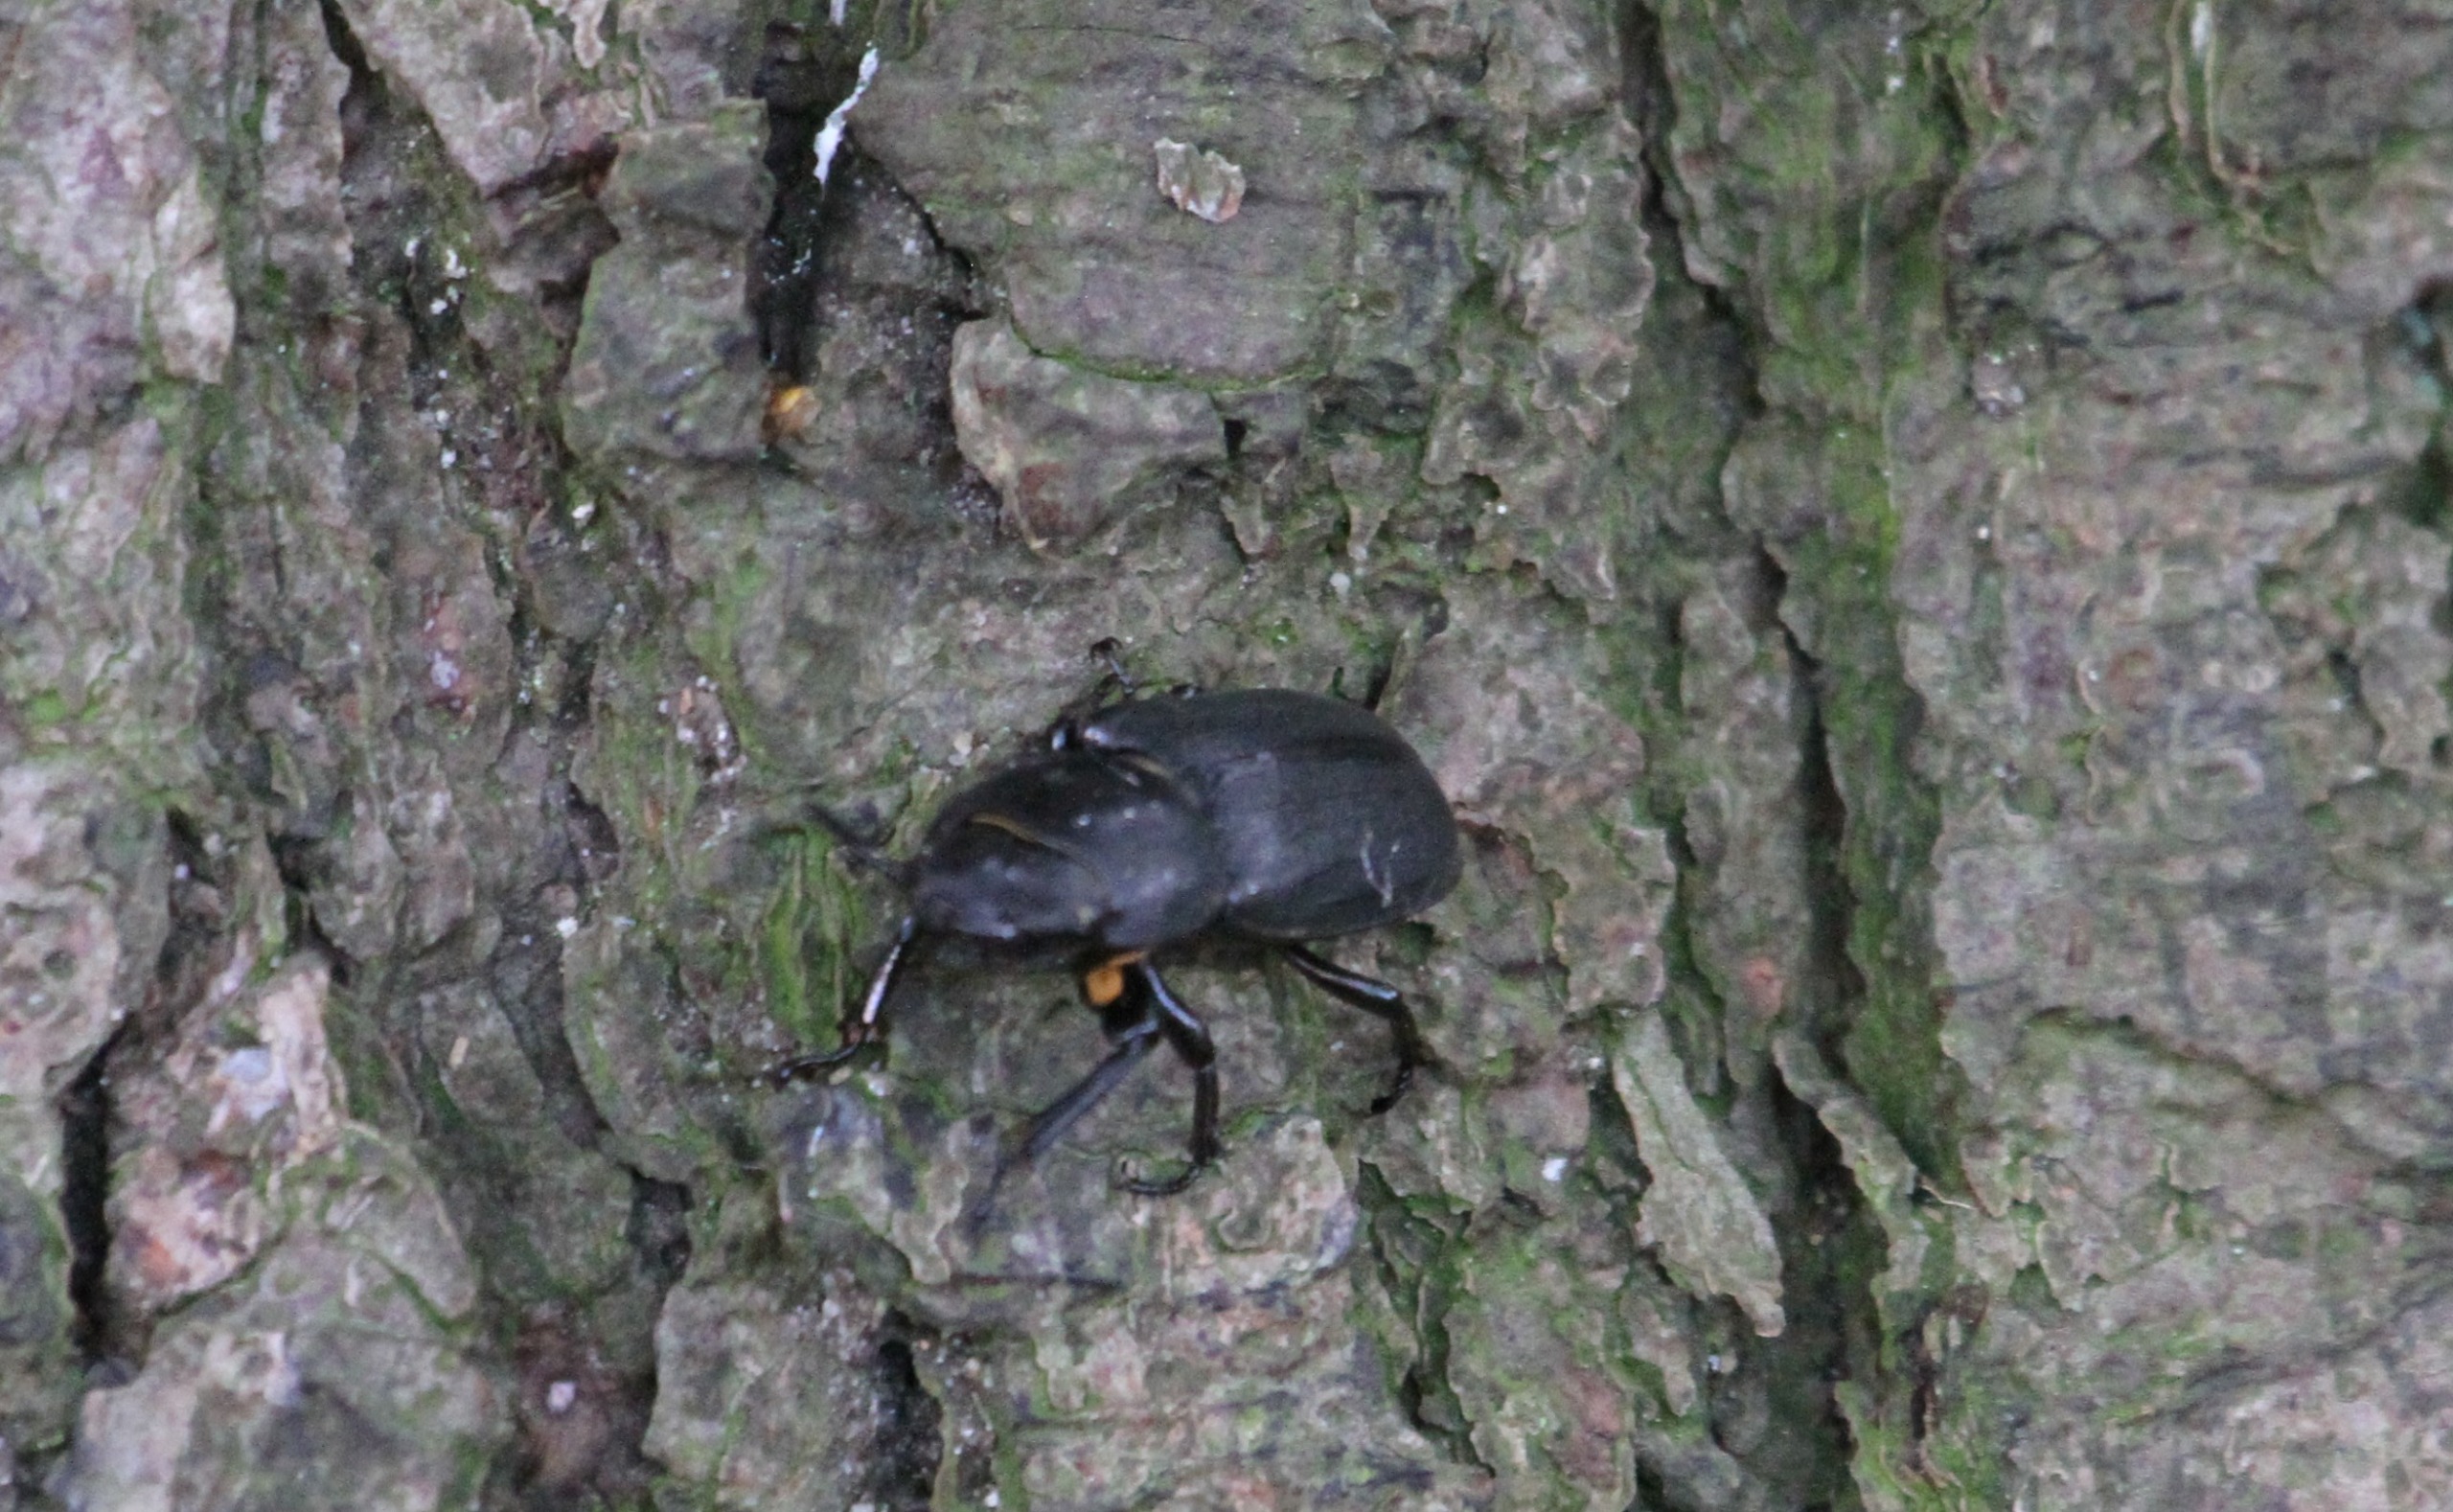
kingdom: Animalia
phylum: Arthropoda
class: Insecta
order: Coleoptera
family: Lucanidae
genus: Dorcus
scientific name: Dorcus parallelipipedus
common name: Bøghjort
